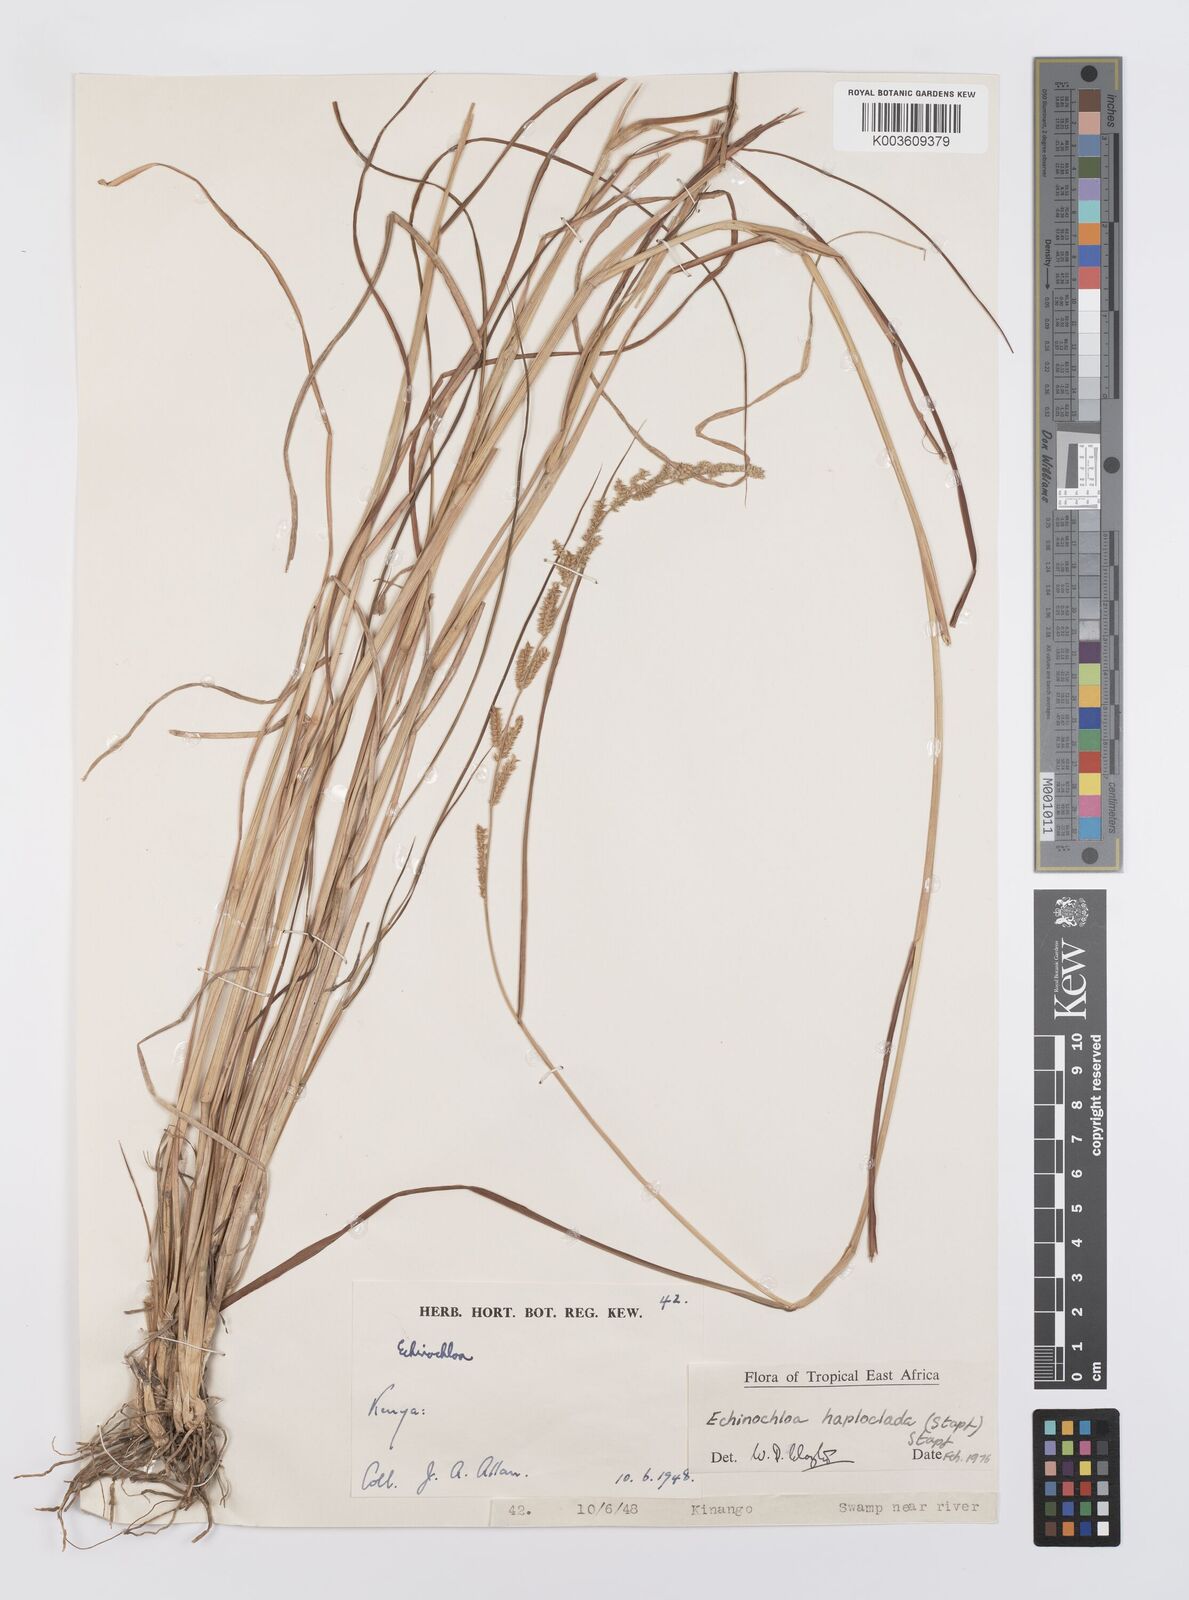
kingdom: Plantae
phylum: Tracheophyta
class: Liliopsida
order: Poales
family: Poaceae
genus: Echinochloa
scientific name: Echinochloa haploclada
